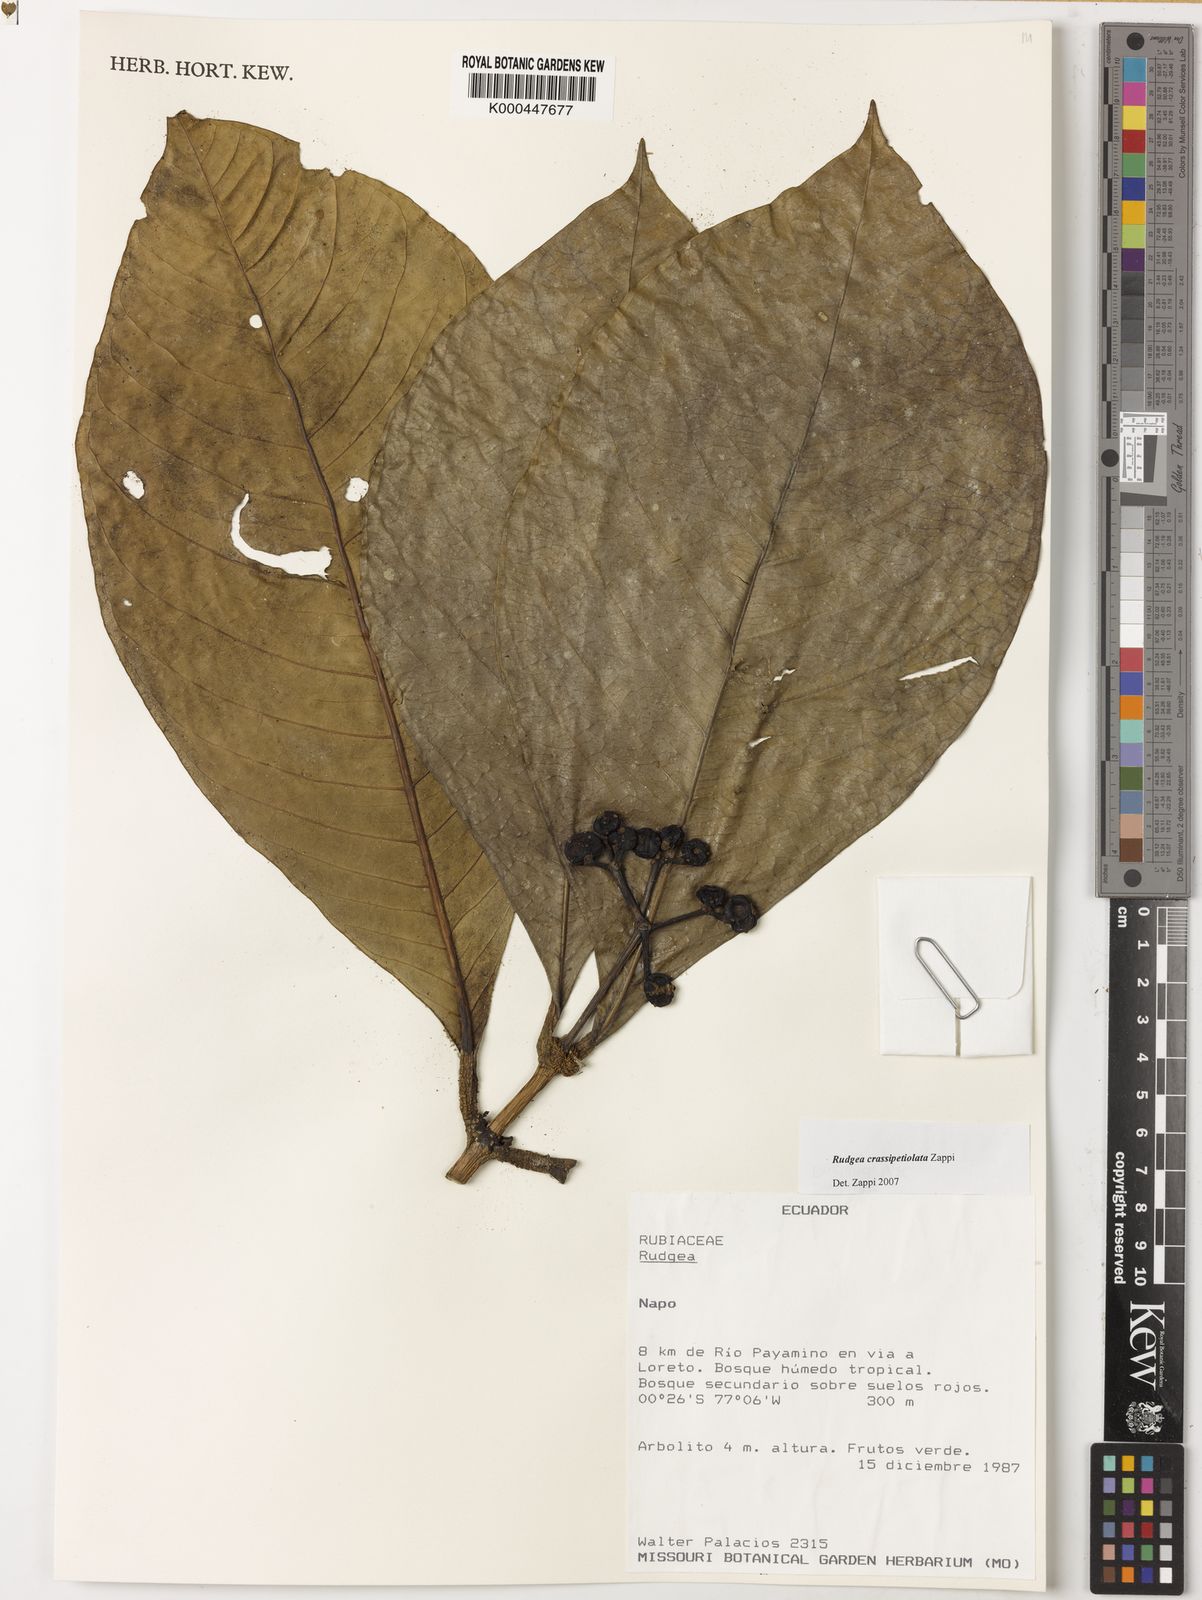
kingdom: Plantae
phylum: Tracheophyta
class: Magnoliopsida
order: Gentianales
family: Rubiaceae
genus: Rudgea
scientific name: Rudgea crassipetiolata
